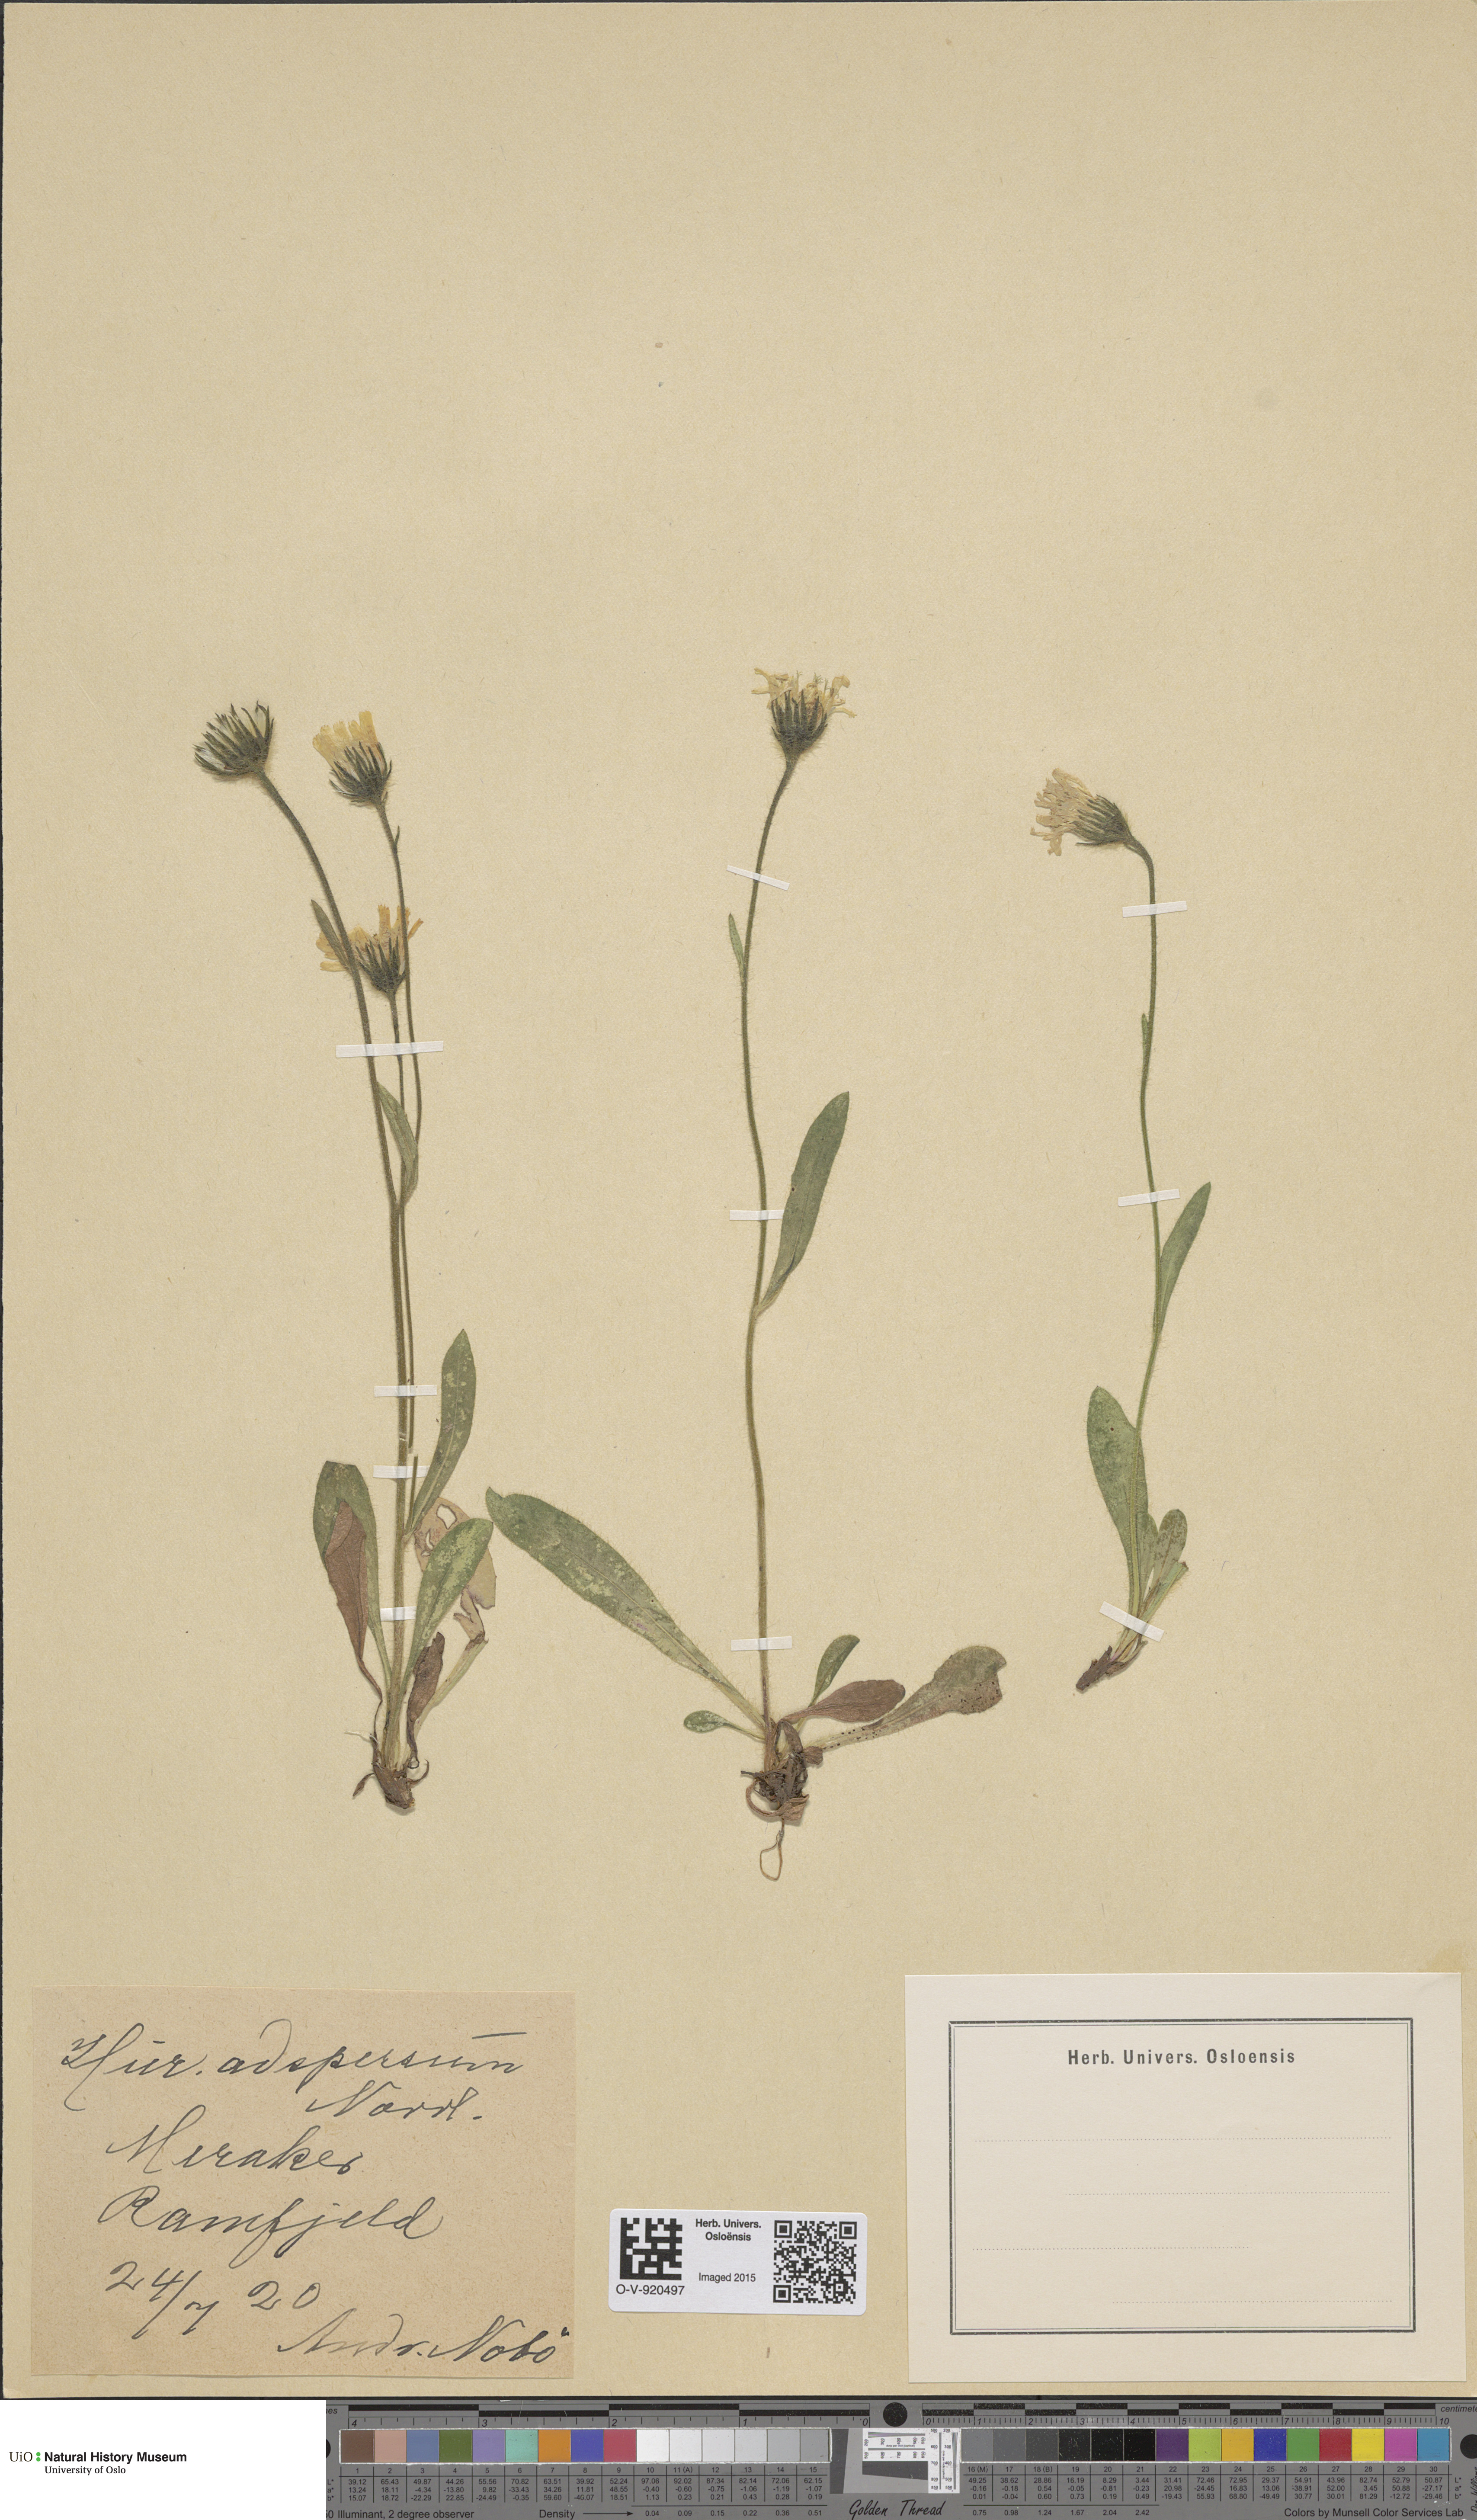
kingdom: Plantae
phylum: Tracheophyta
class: Magnoliopsida
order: Asterales
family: Asteraceae
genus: Hieracium
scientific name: Hieracium alpinum
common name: Alpine hawkweed
